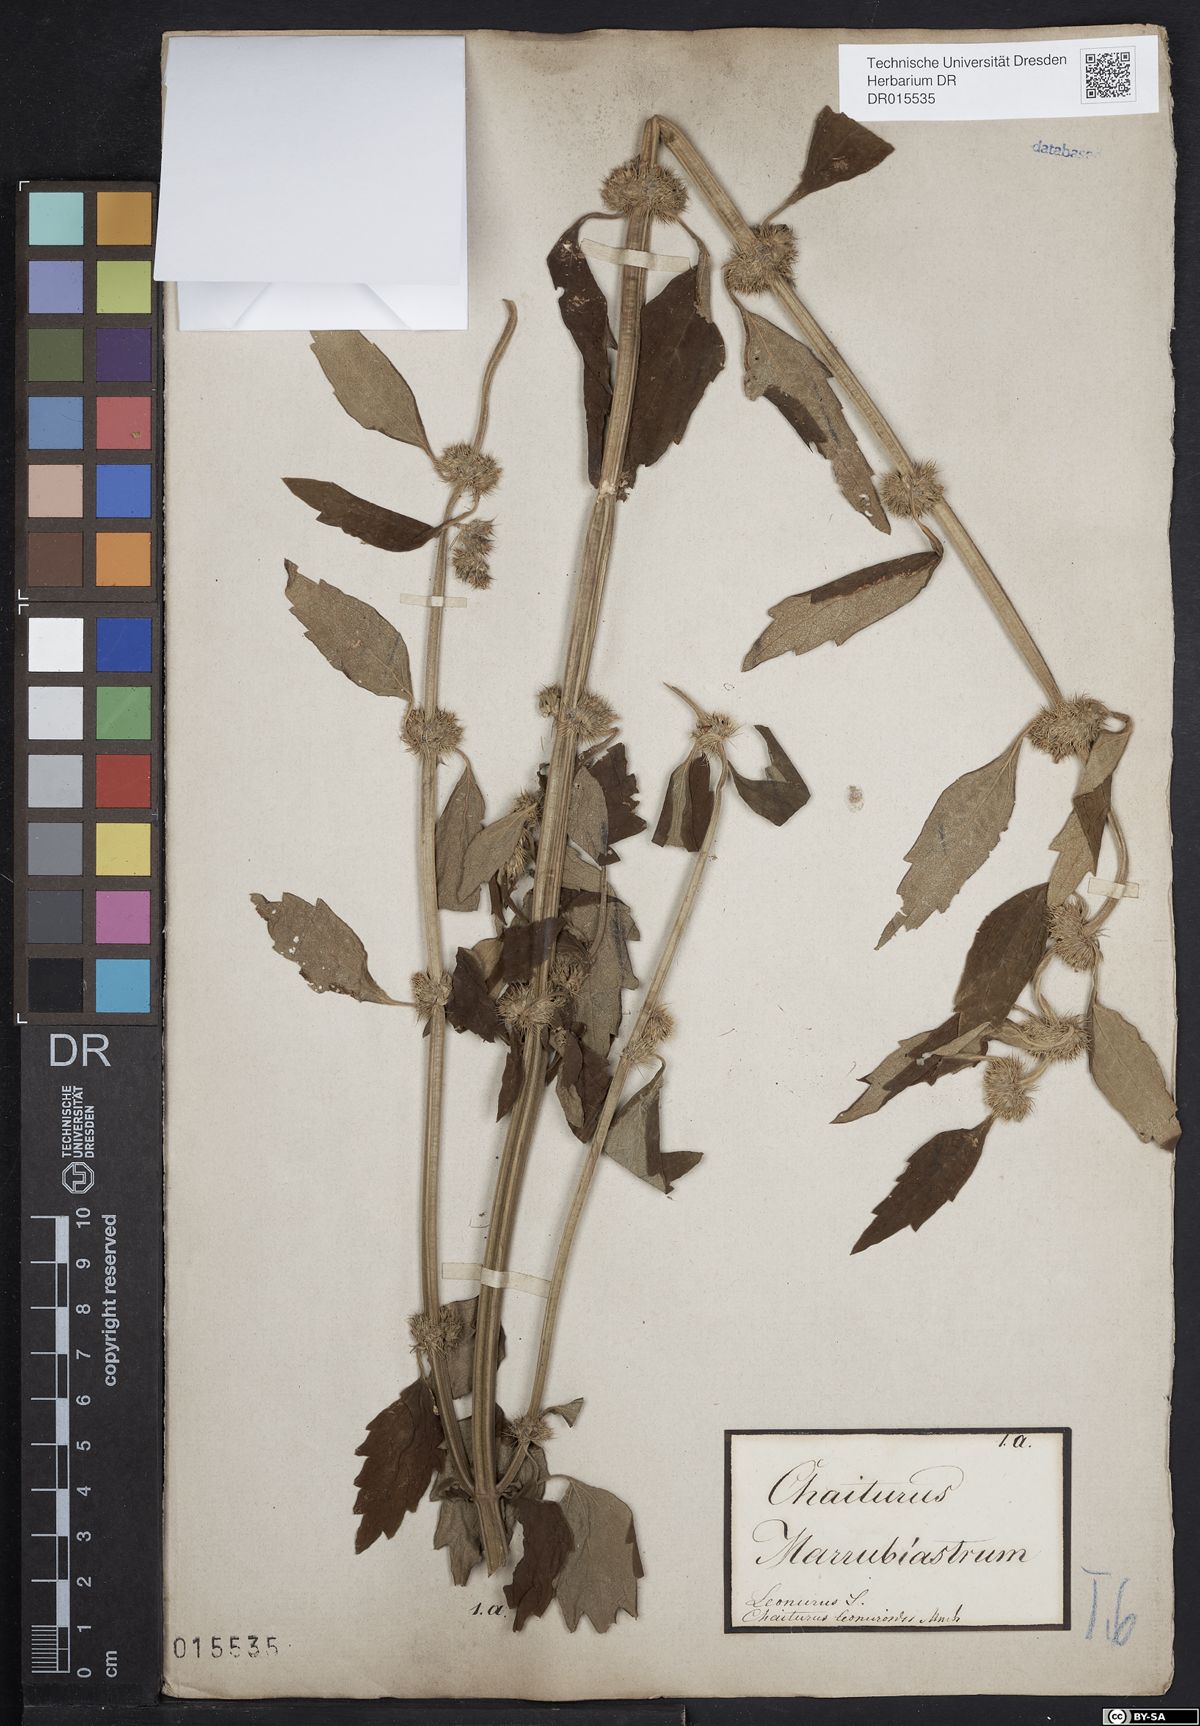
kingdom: Plantae
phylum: Tracheophyta
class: Magnoliopsida
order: Lamiales
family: Lamiaceae
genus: Chaiturus
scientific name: Chaiturus marrubiastrum
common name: Lion's tail
